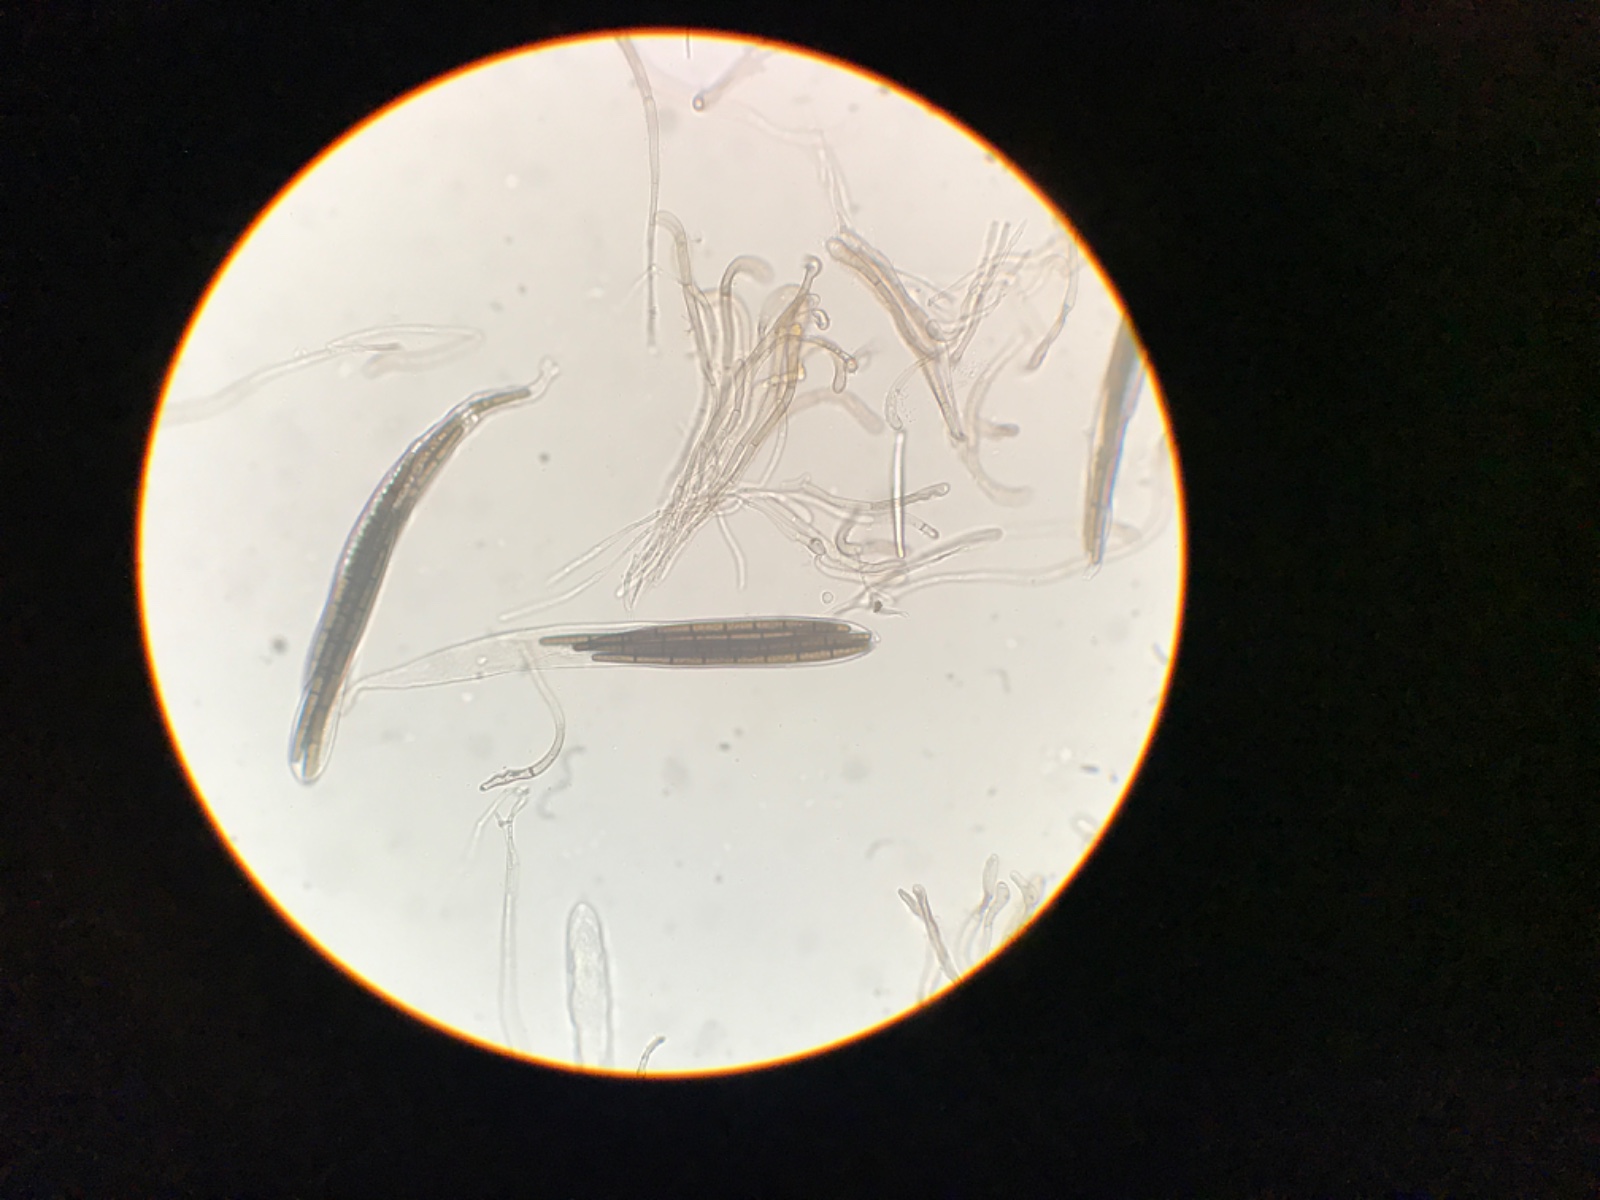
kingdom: Fungi
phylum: Ascomycota
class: Geoglossomycetes
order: Geoglossales
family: Geoglossaceae
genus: Trichoglossum
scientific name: Trichoglossum walteri
